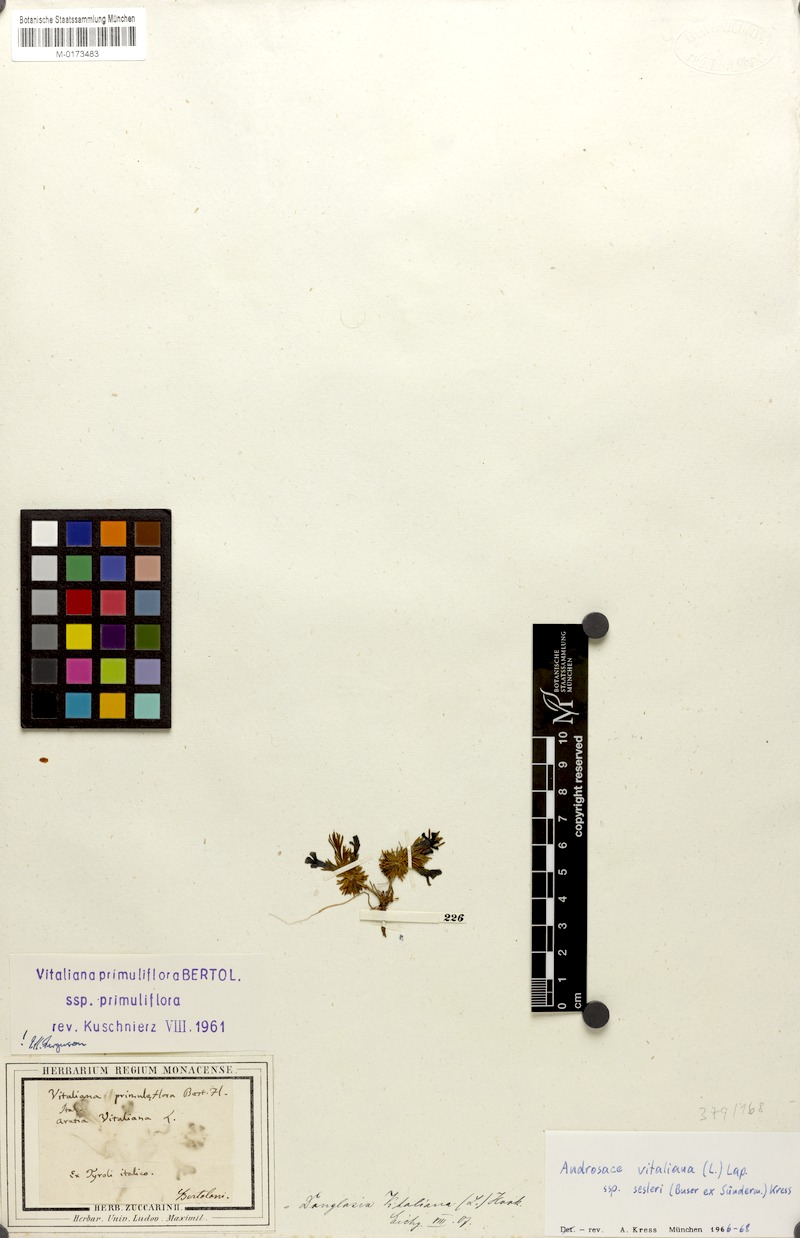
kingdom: Plantae
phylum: Tracheophyta
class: Magnoliopsida
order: Ericales
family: Primulaceae
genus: Androsace
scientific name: Androsace vitaliana
